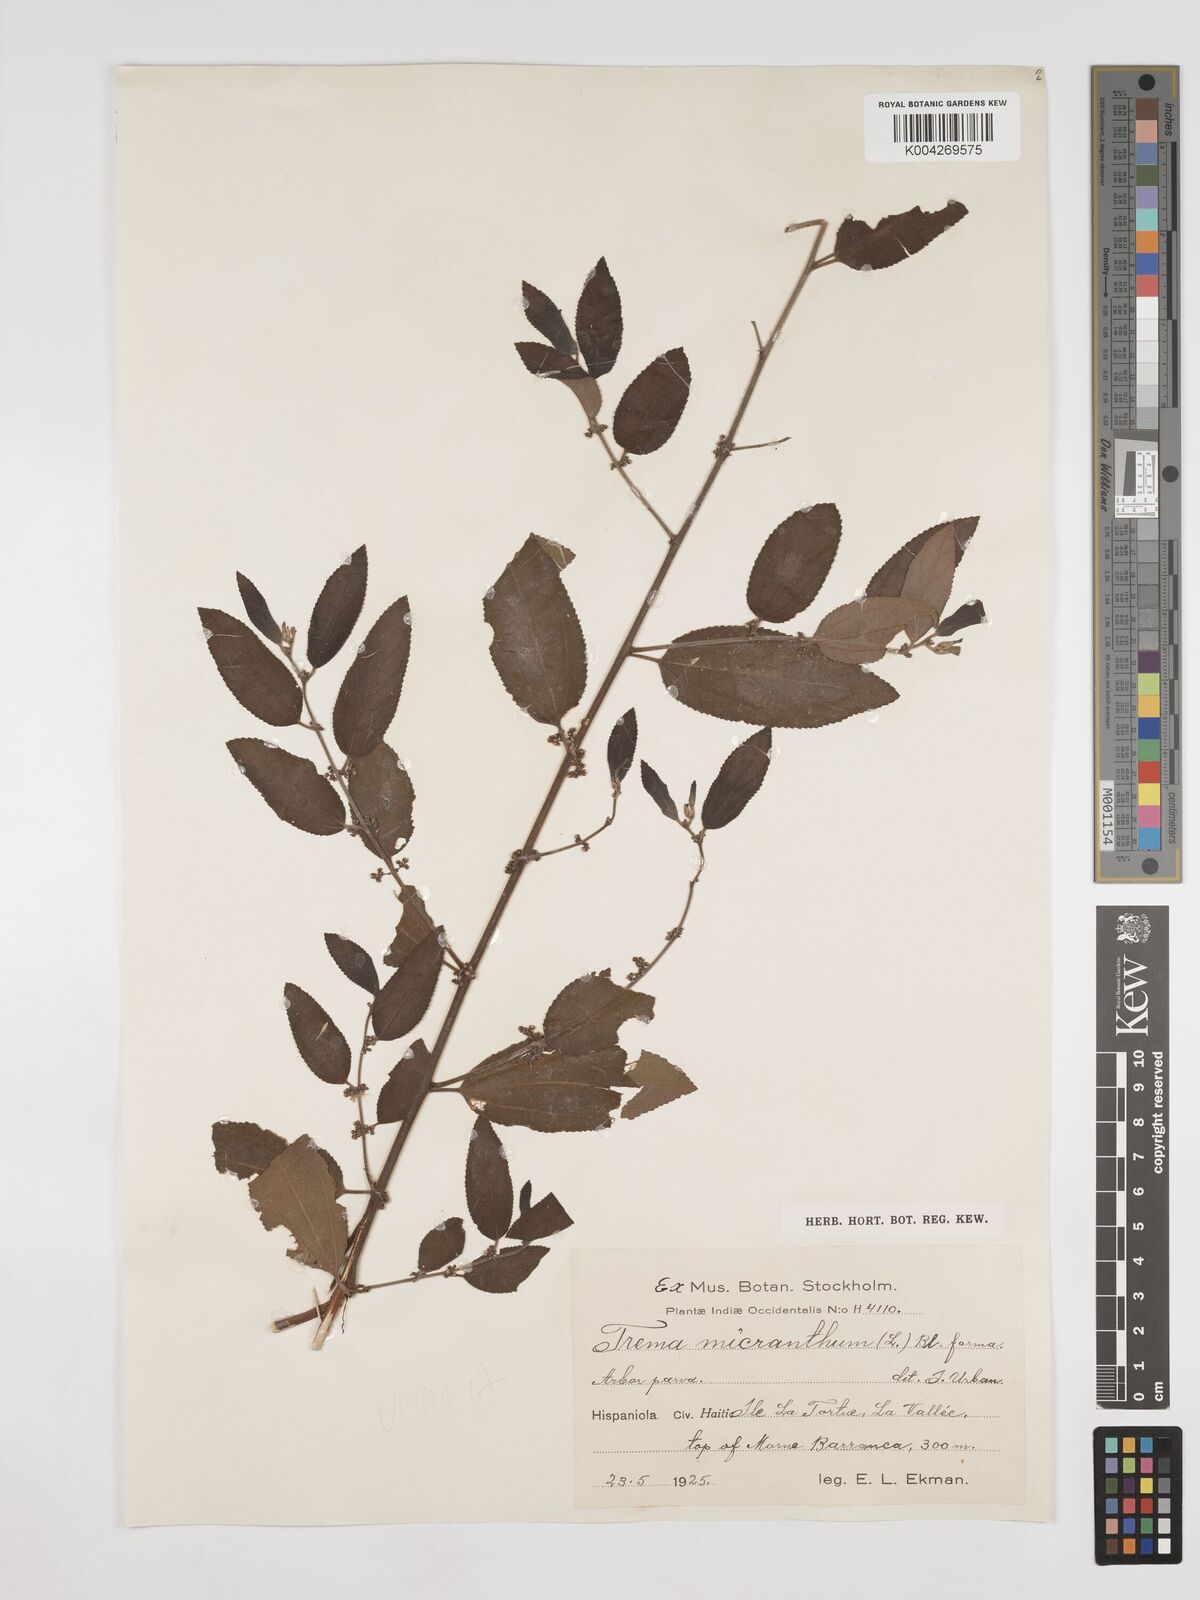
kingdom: Plantae
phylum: Tracheophyta
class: Magnoliopsida
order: Rosales
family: Cannabaceae
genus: Trema
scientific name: Trema micranthum
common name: Jamaican nettletree
